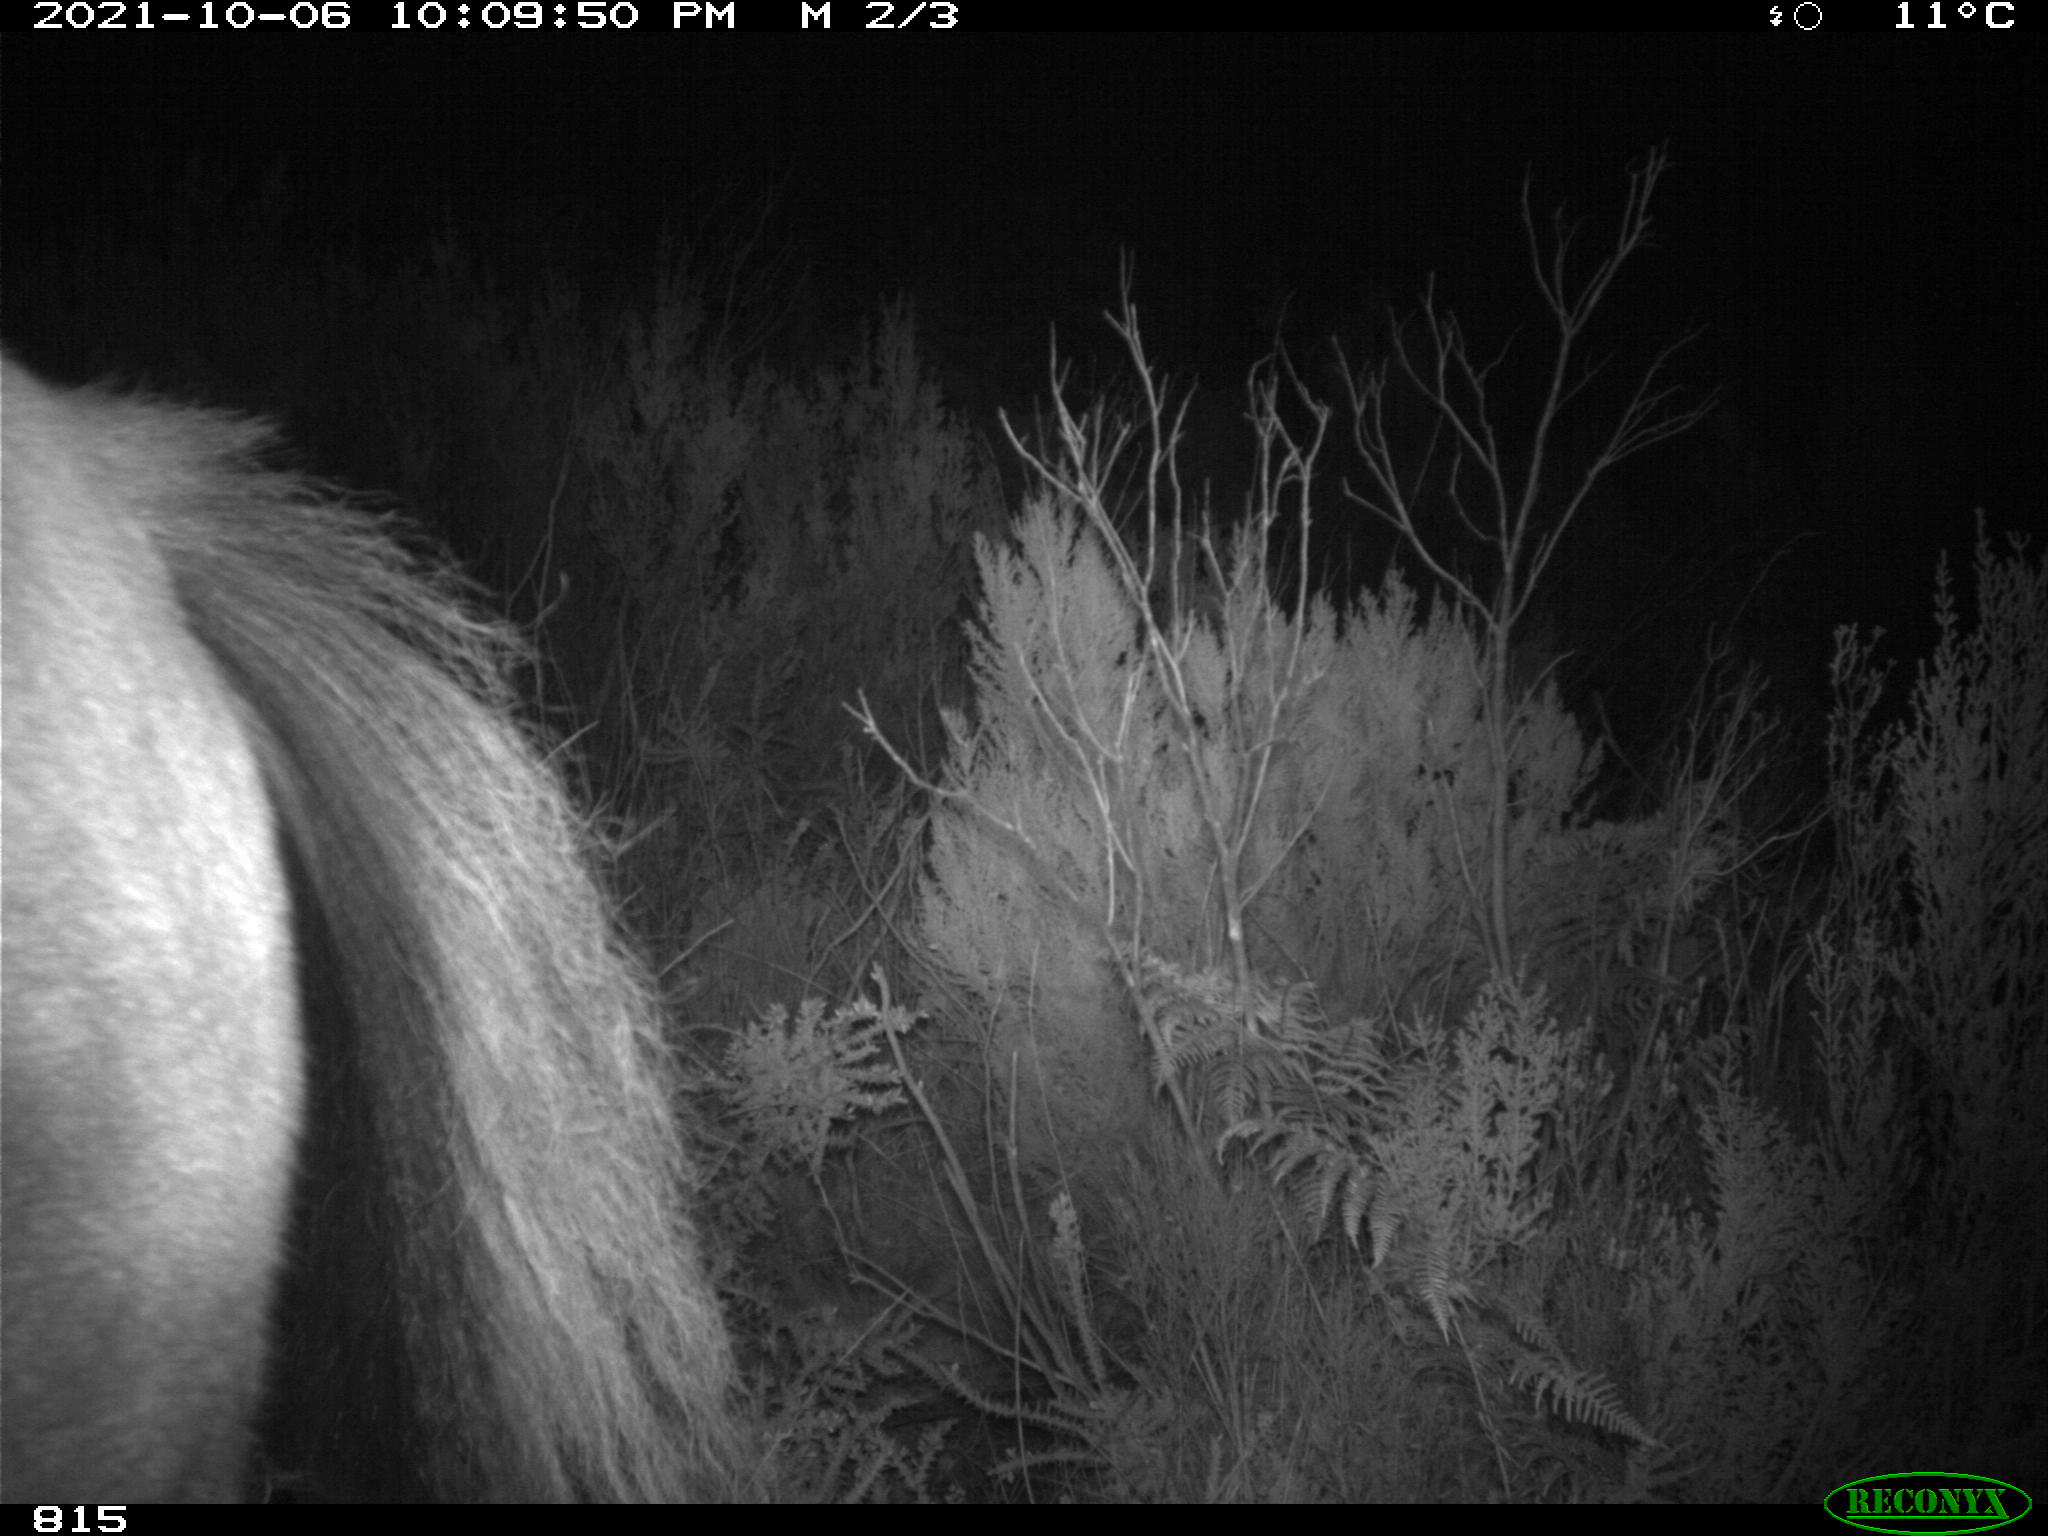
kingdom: Animalia
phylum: Chordata
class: Mammalia
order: Perissodactyla
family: Equidae
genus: Equus
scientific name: Equus caballus
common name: Horse
